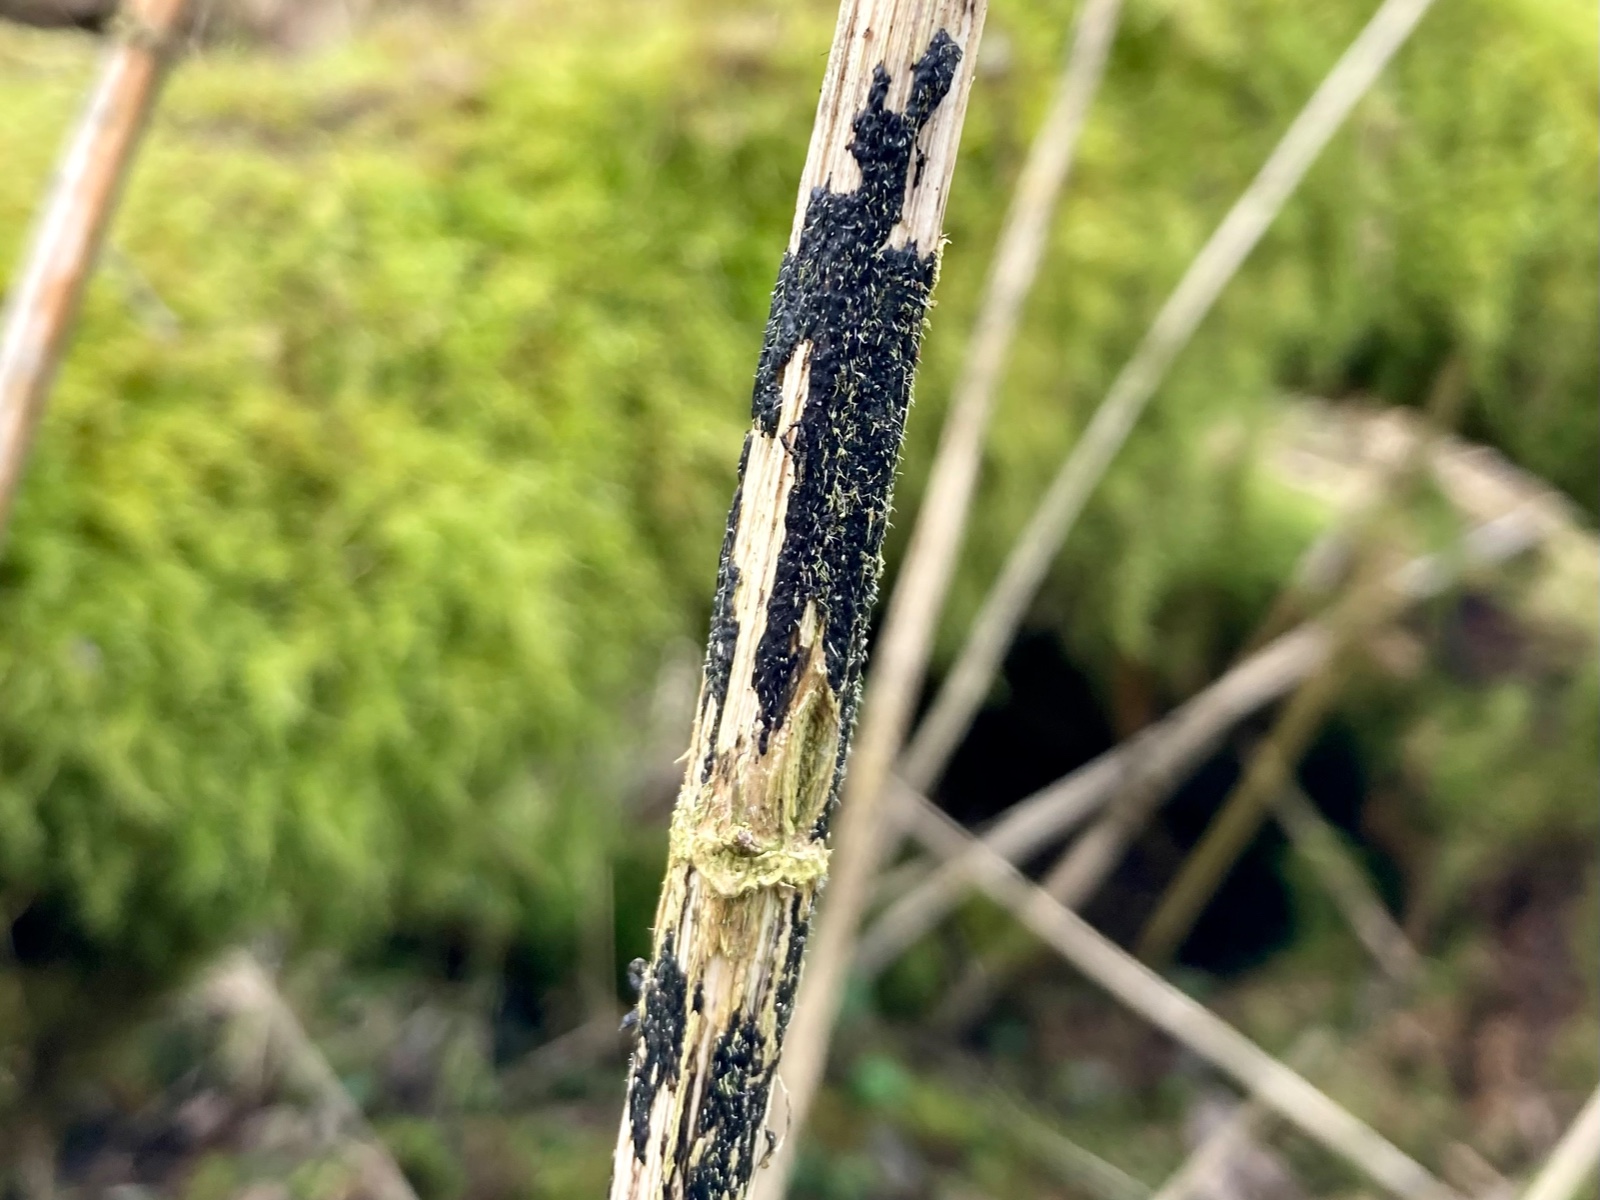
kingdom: Fungi
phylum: Ascomycota
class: Sordariomycetes
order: Diaporthales
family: Diaporthaceae
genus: Diaporthopsis
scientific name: Diaporthopsis urticae
